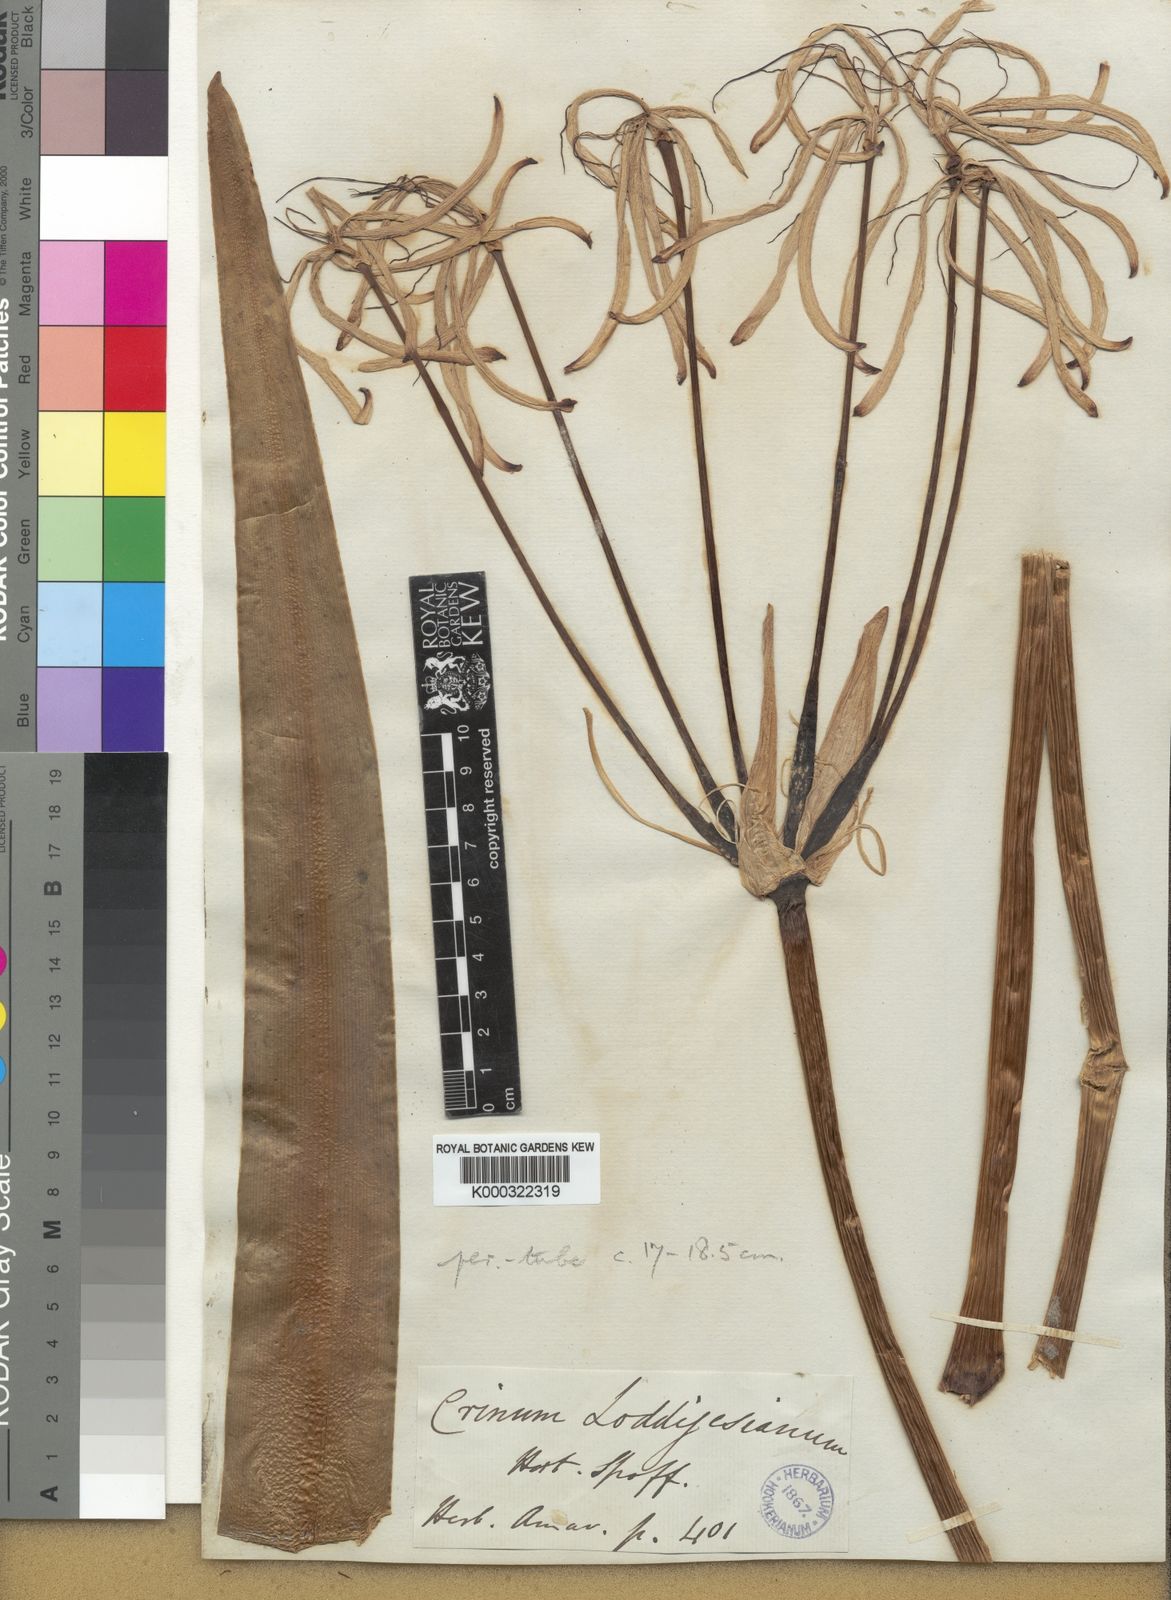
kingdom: Plantae
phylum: Tracheophyta
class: Liliopsida
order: Asparagales
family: Amaryllidaceae
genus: Crinum
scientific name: Crinum erubescens
